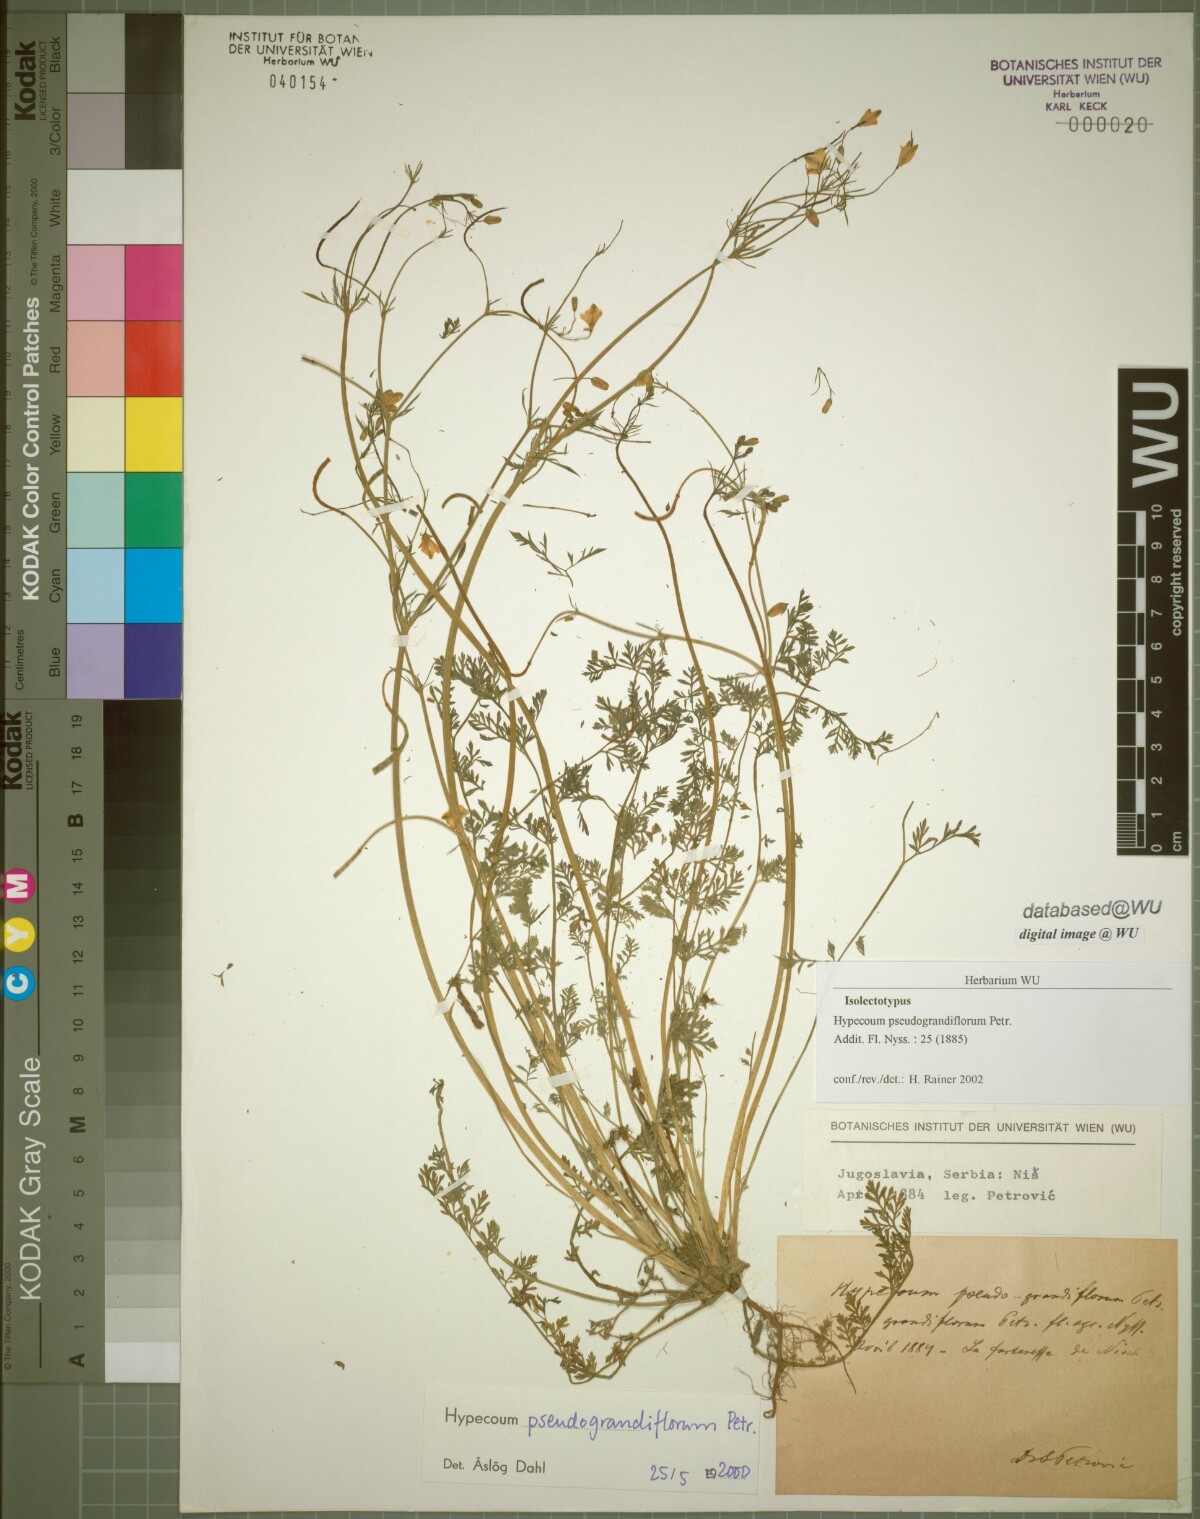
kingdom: Plantae
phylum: Tracheophyta
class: Magnoliopsida
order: Ranunculales
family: Papaveraceae
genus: Hypecoum
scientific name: Hypecoum pseudograndiflorum
